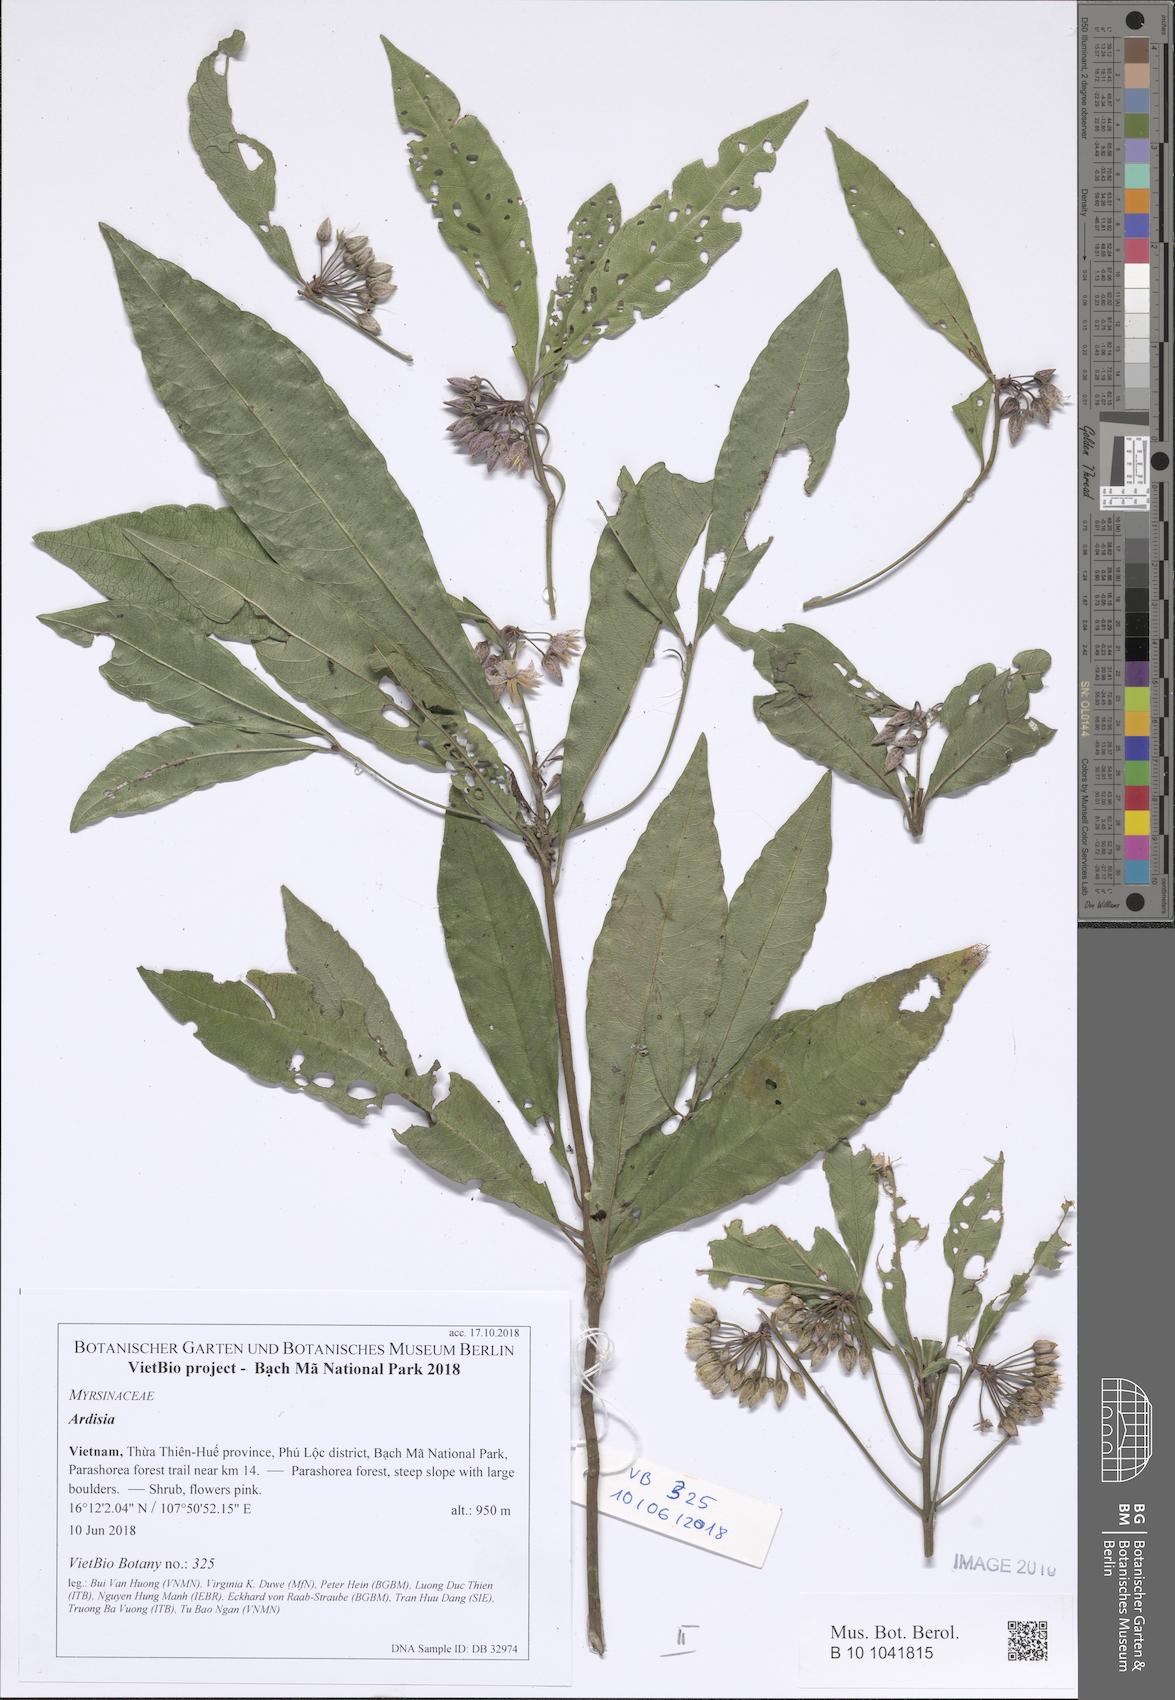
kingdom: Plantae
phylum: Tracheophyta
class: Magnoliopsida
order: Ericales
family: Primulaceae
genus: Ardisia
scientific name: Ardisia aciphylla
